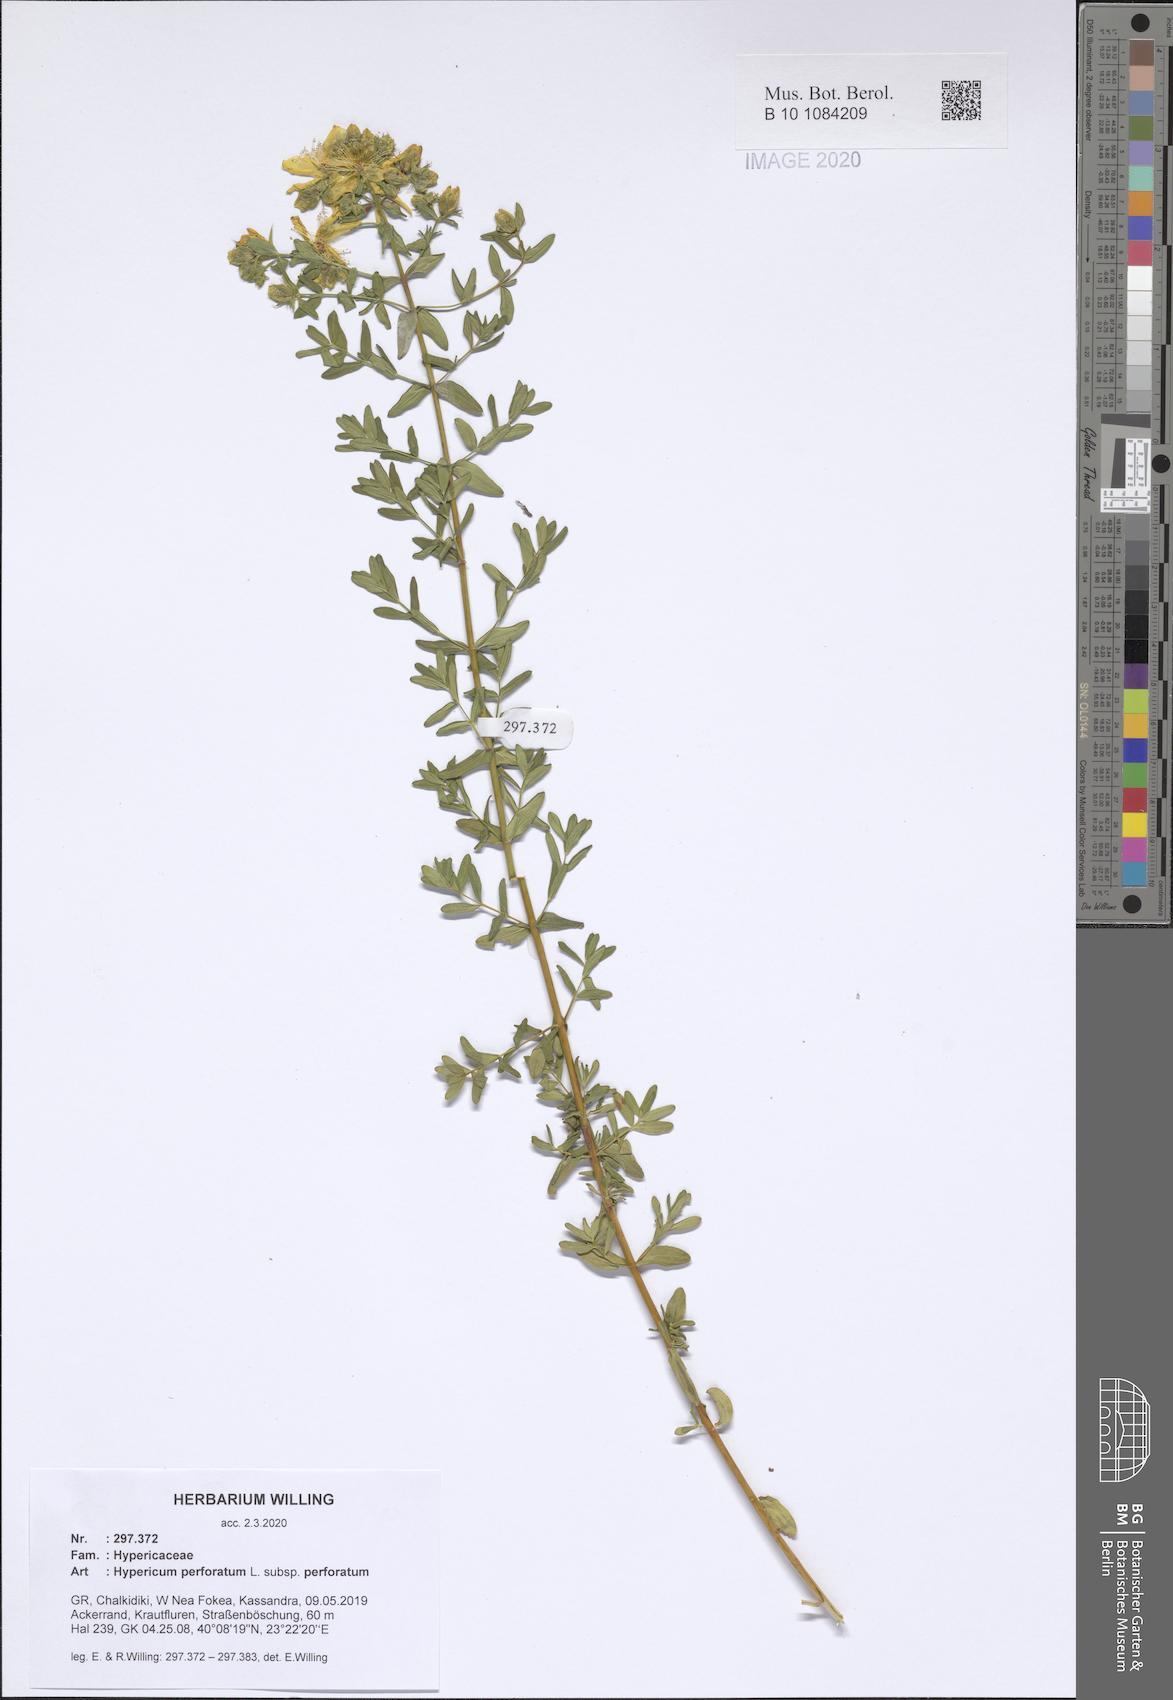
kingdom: Plantae
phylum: Tracheophyta
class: Magnoliopsida
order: Malpighiales
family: Hypericaceae
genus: Hypericum
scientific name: Hypericum perforatum
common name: Common st. johnswort
